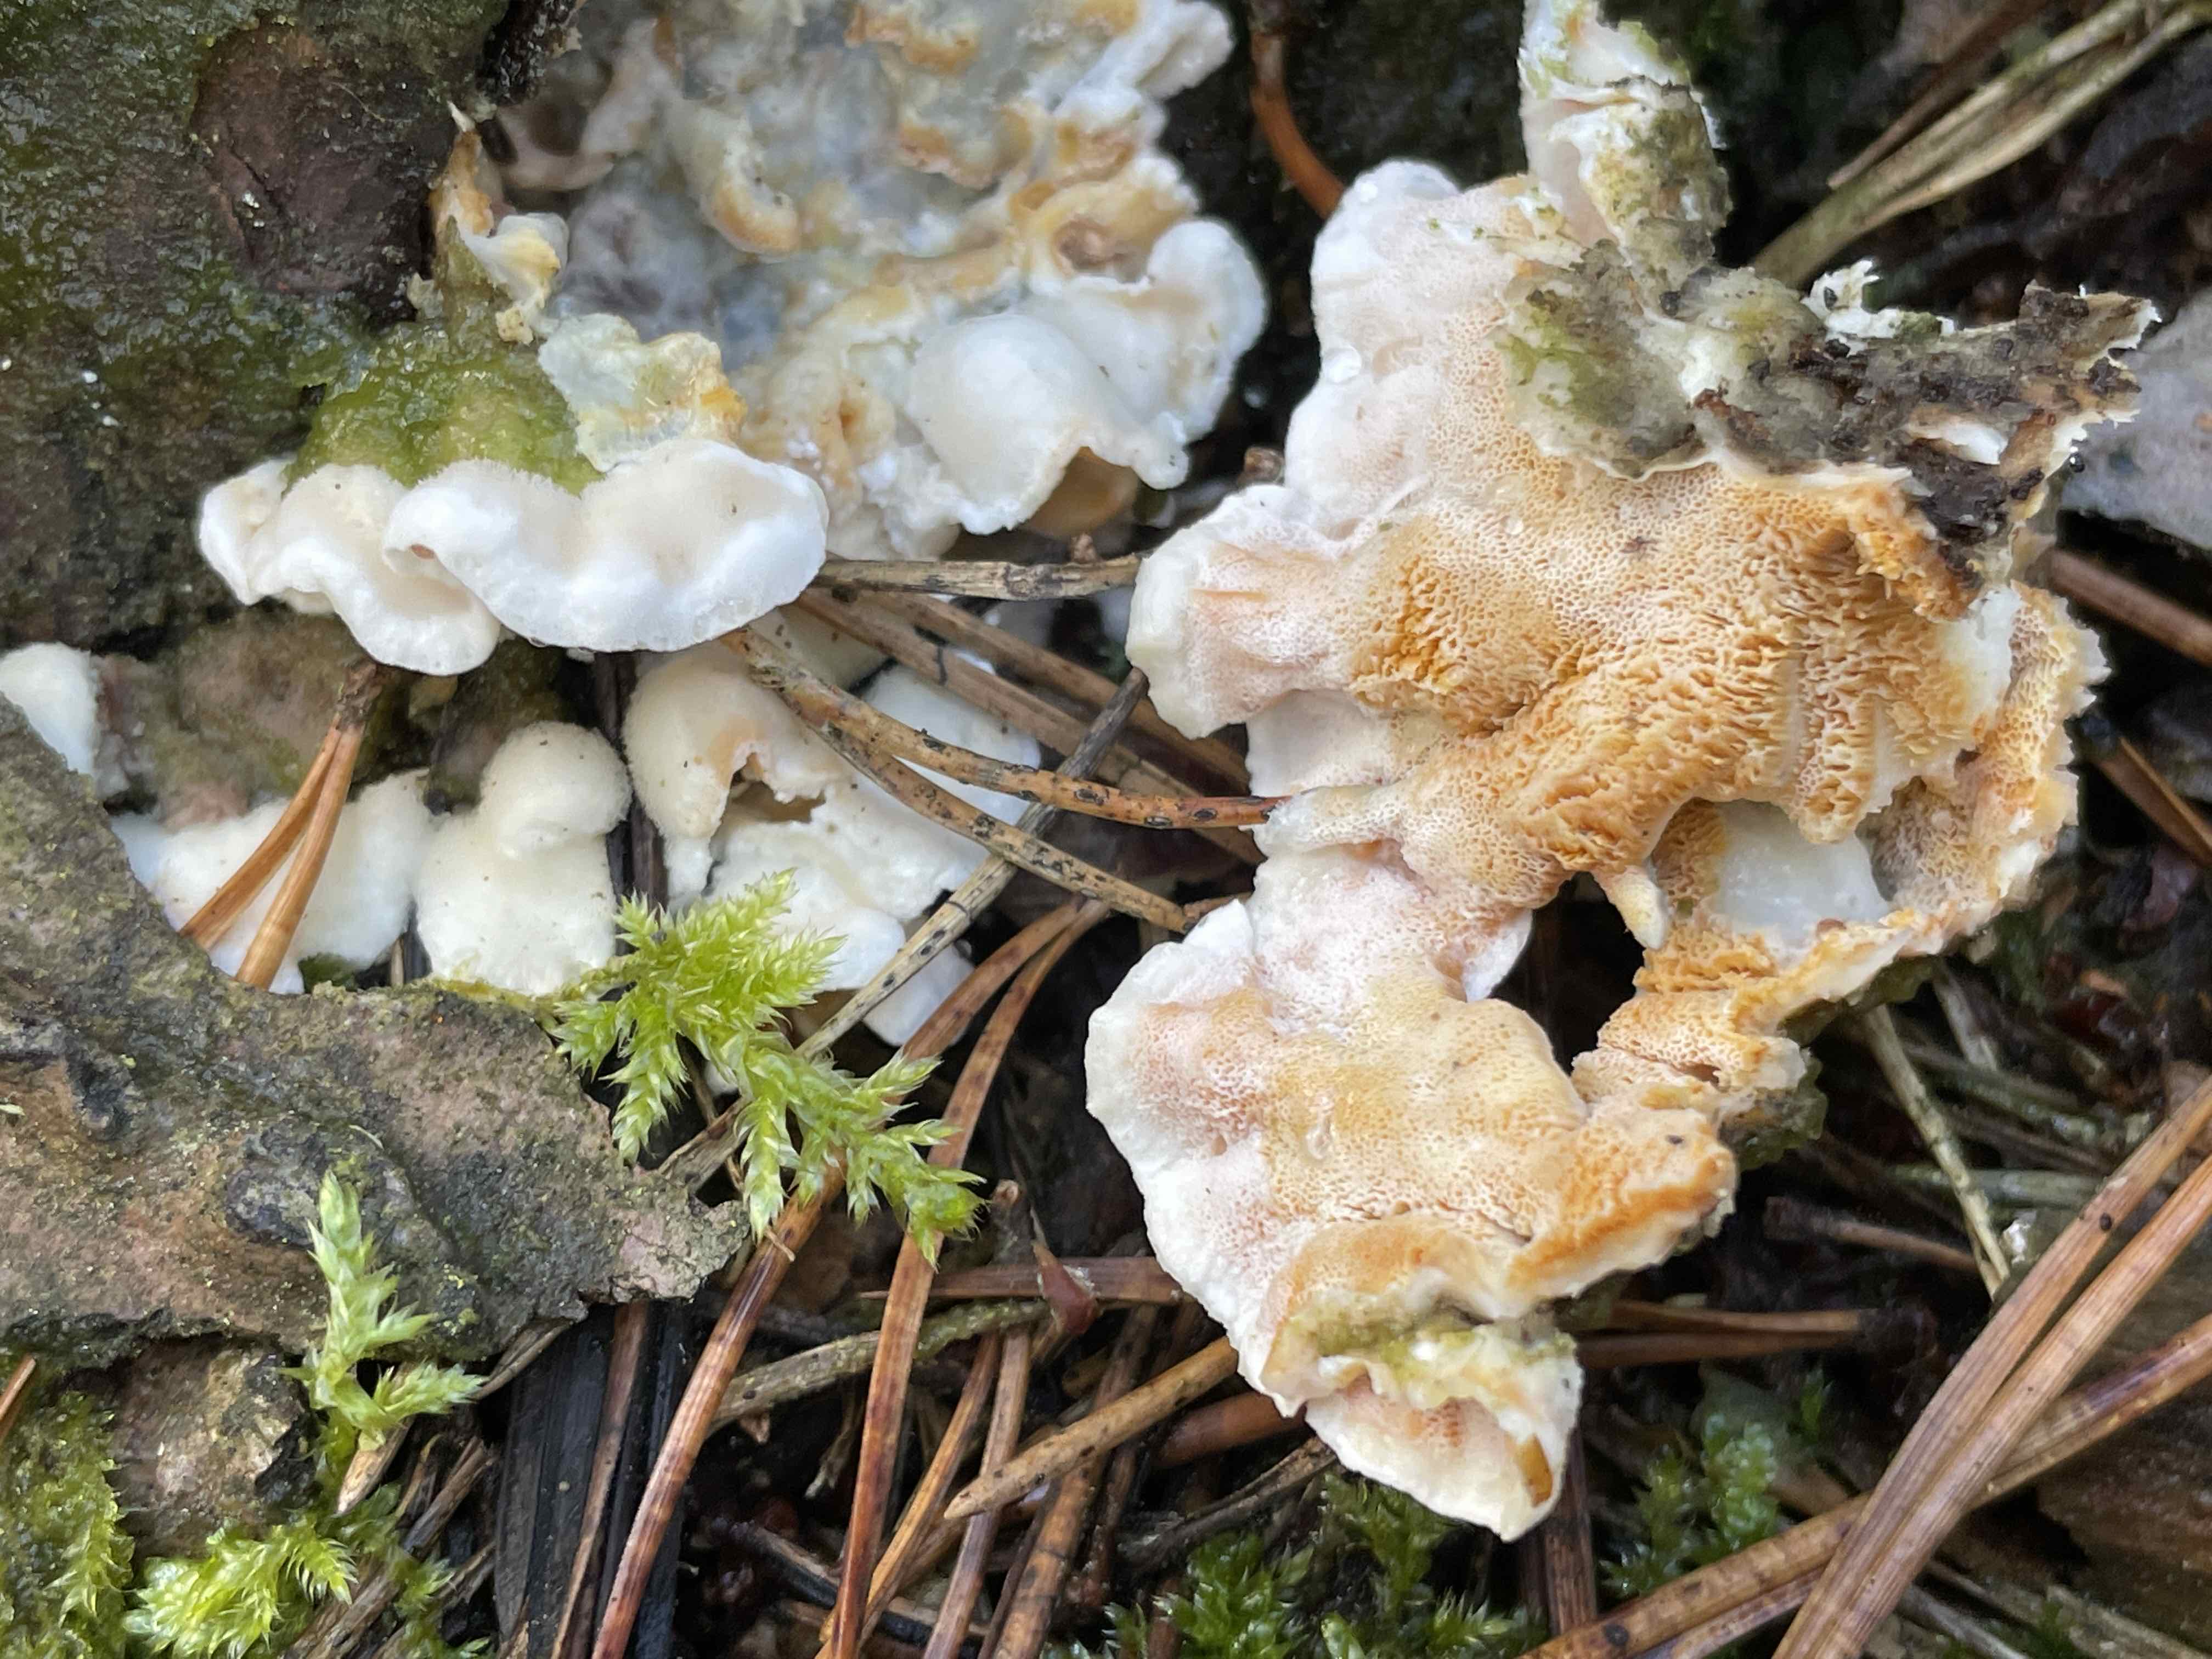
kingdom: Fungi
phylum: Basidiomycota
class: Agaricomycetes
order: Polyporales
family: Incrustoporiaceae
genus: Skeletocutis
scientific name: Skeletocutis amorpha
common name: orange krystalporesvamp
